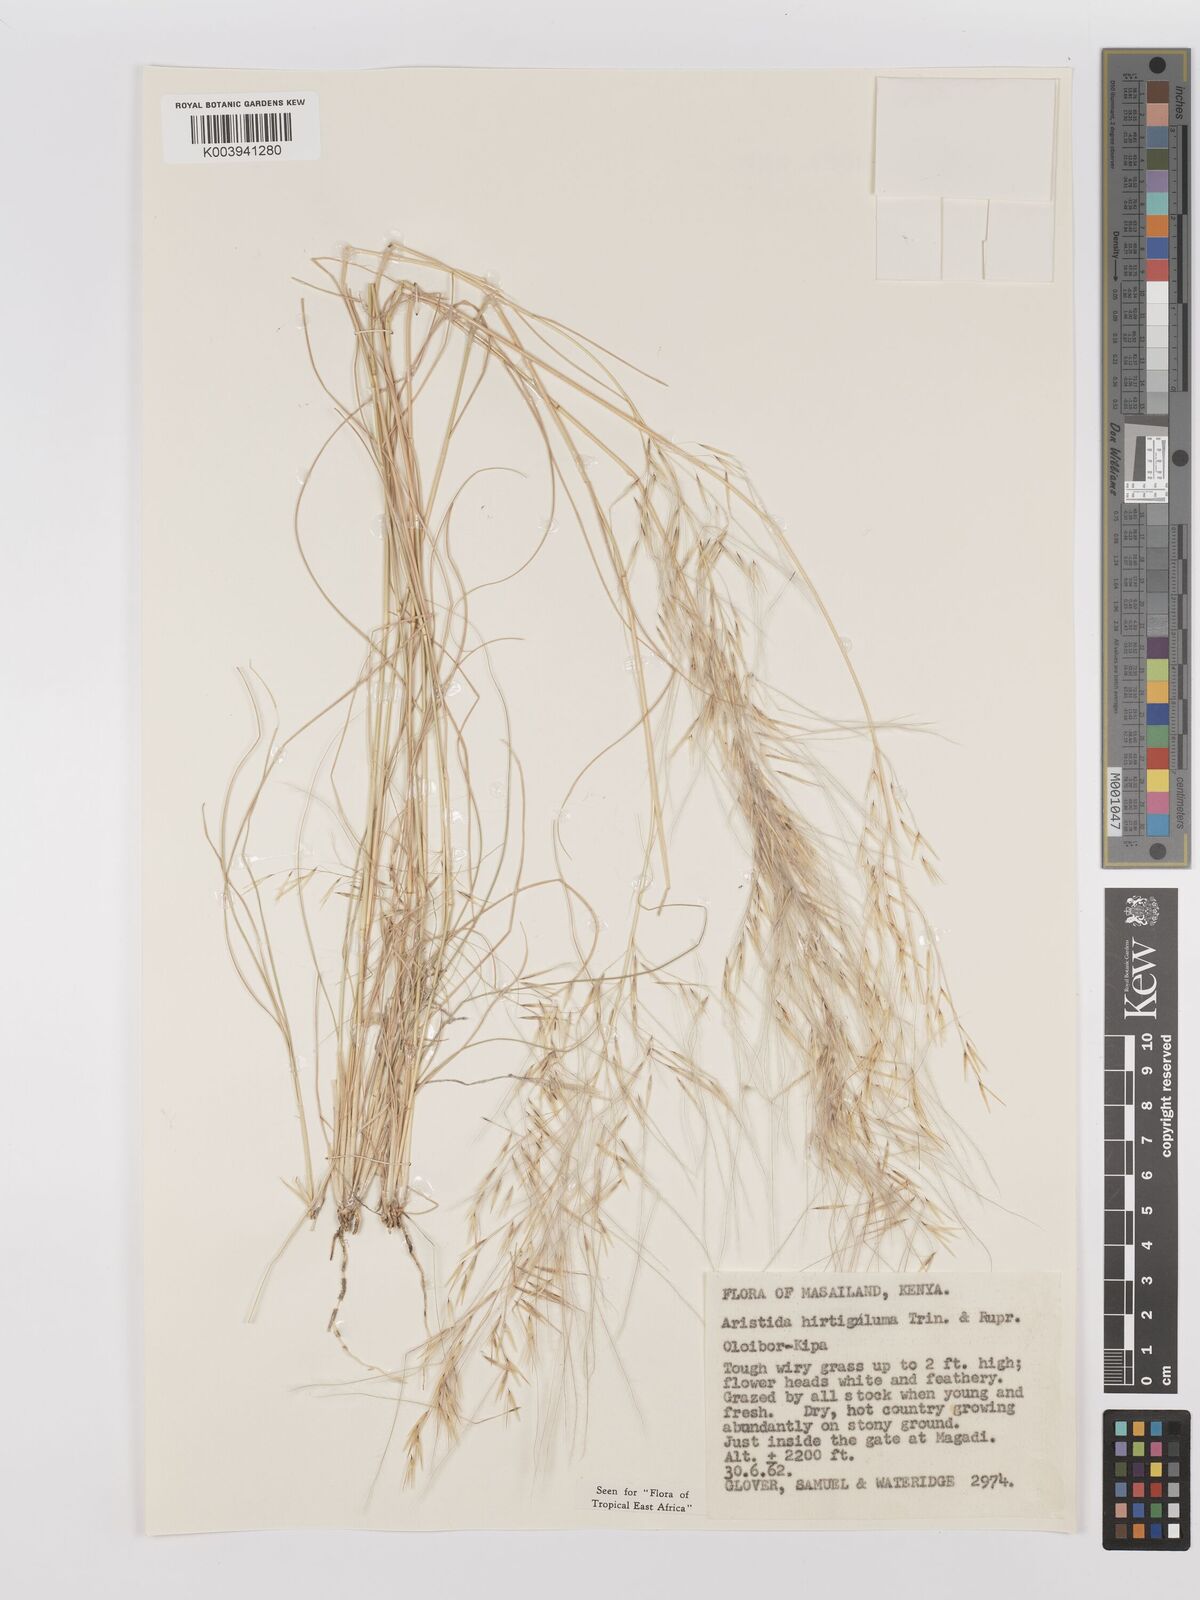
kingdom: Plantae
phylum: Tracheophyta
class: Liliopsida
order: Poales
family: Poaceae
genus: Stipagrostis
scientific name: Stipagrostis hirtigluma
